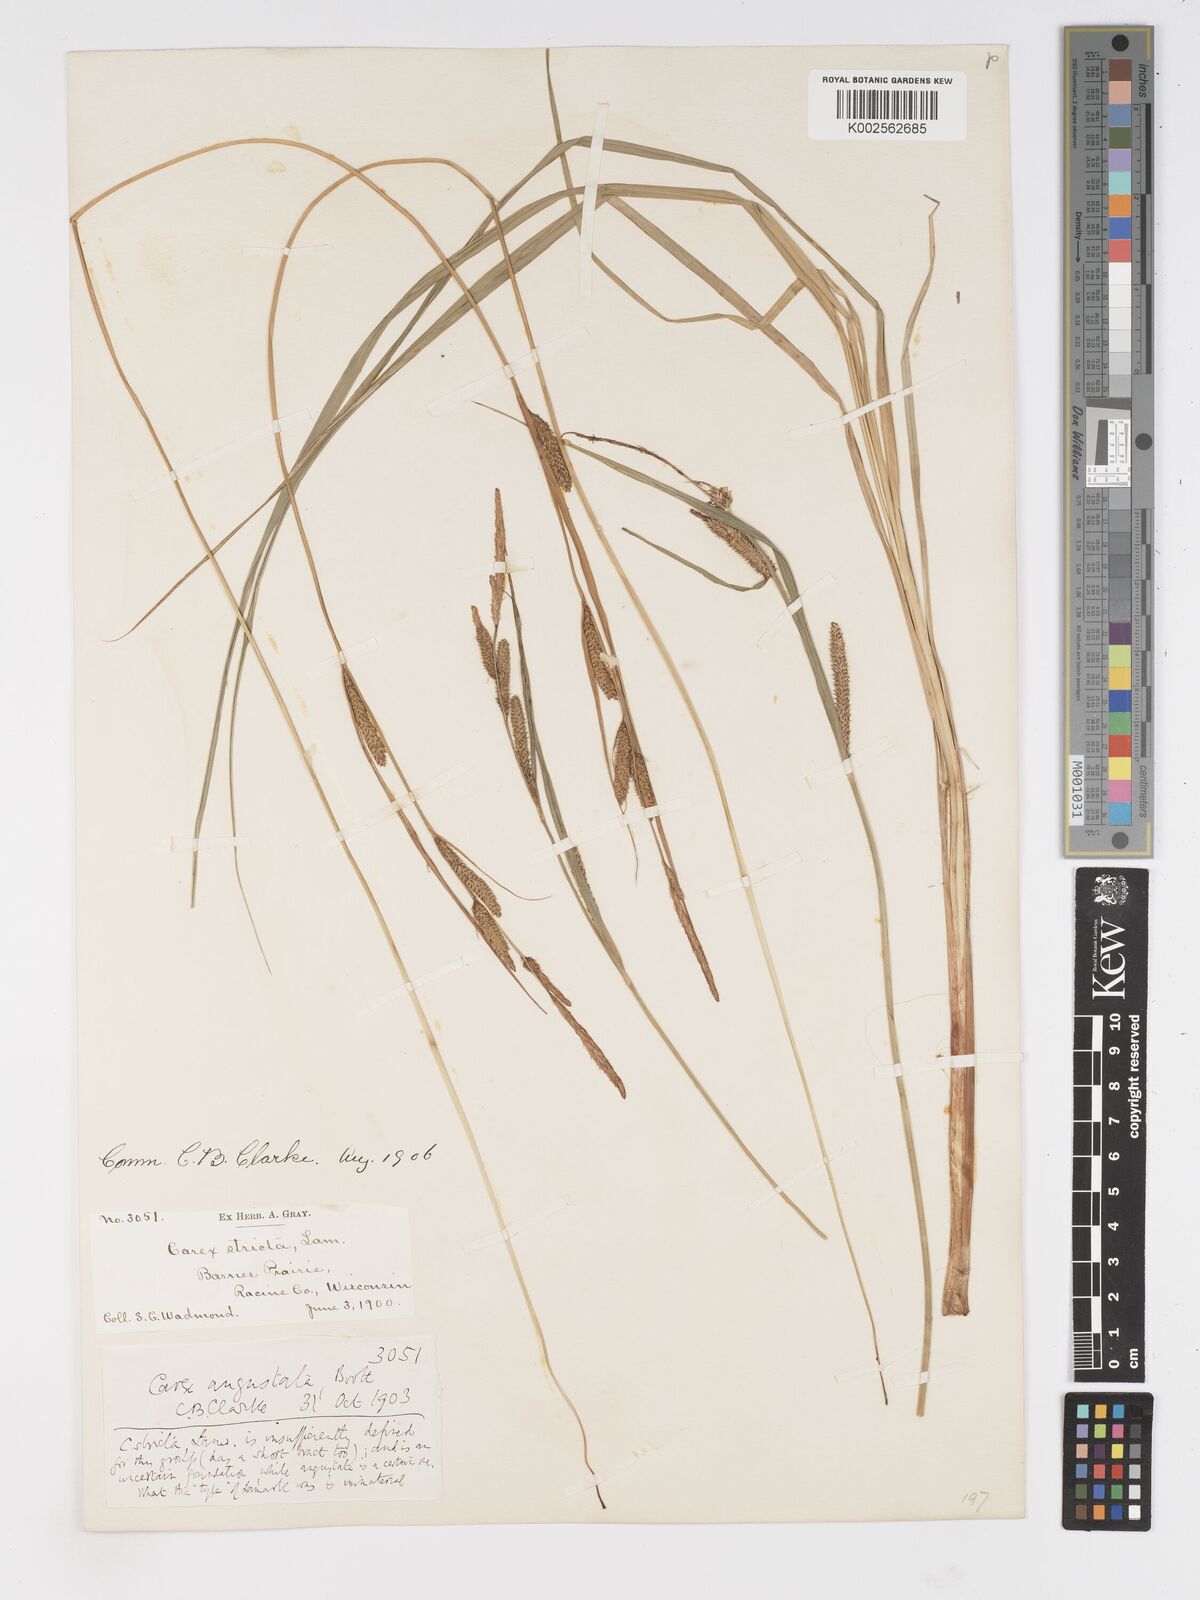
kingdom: Plantae
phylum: Tracheophyta
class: Liliopsida
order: Poales
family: Cyperaceae
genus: Carex
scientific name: Carex stricta
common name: Hummock sedge
